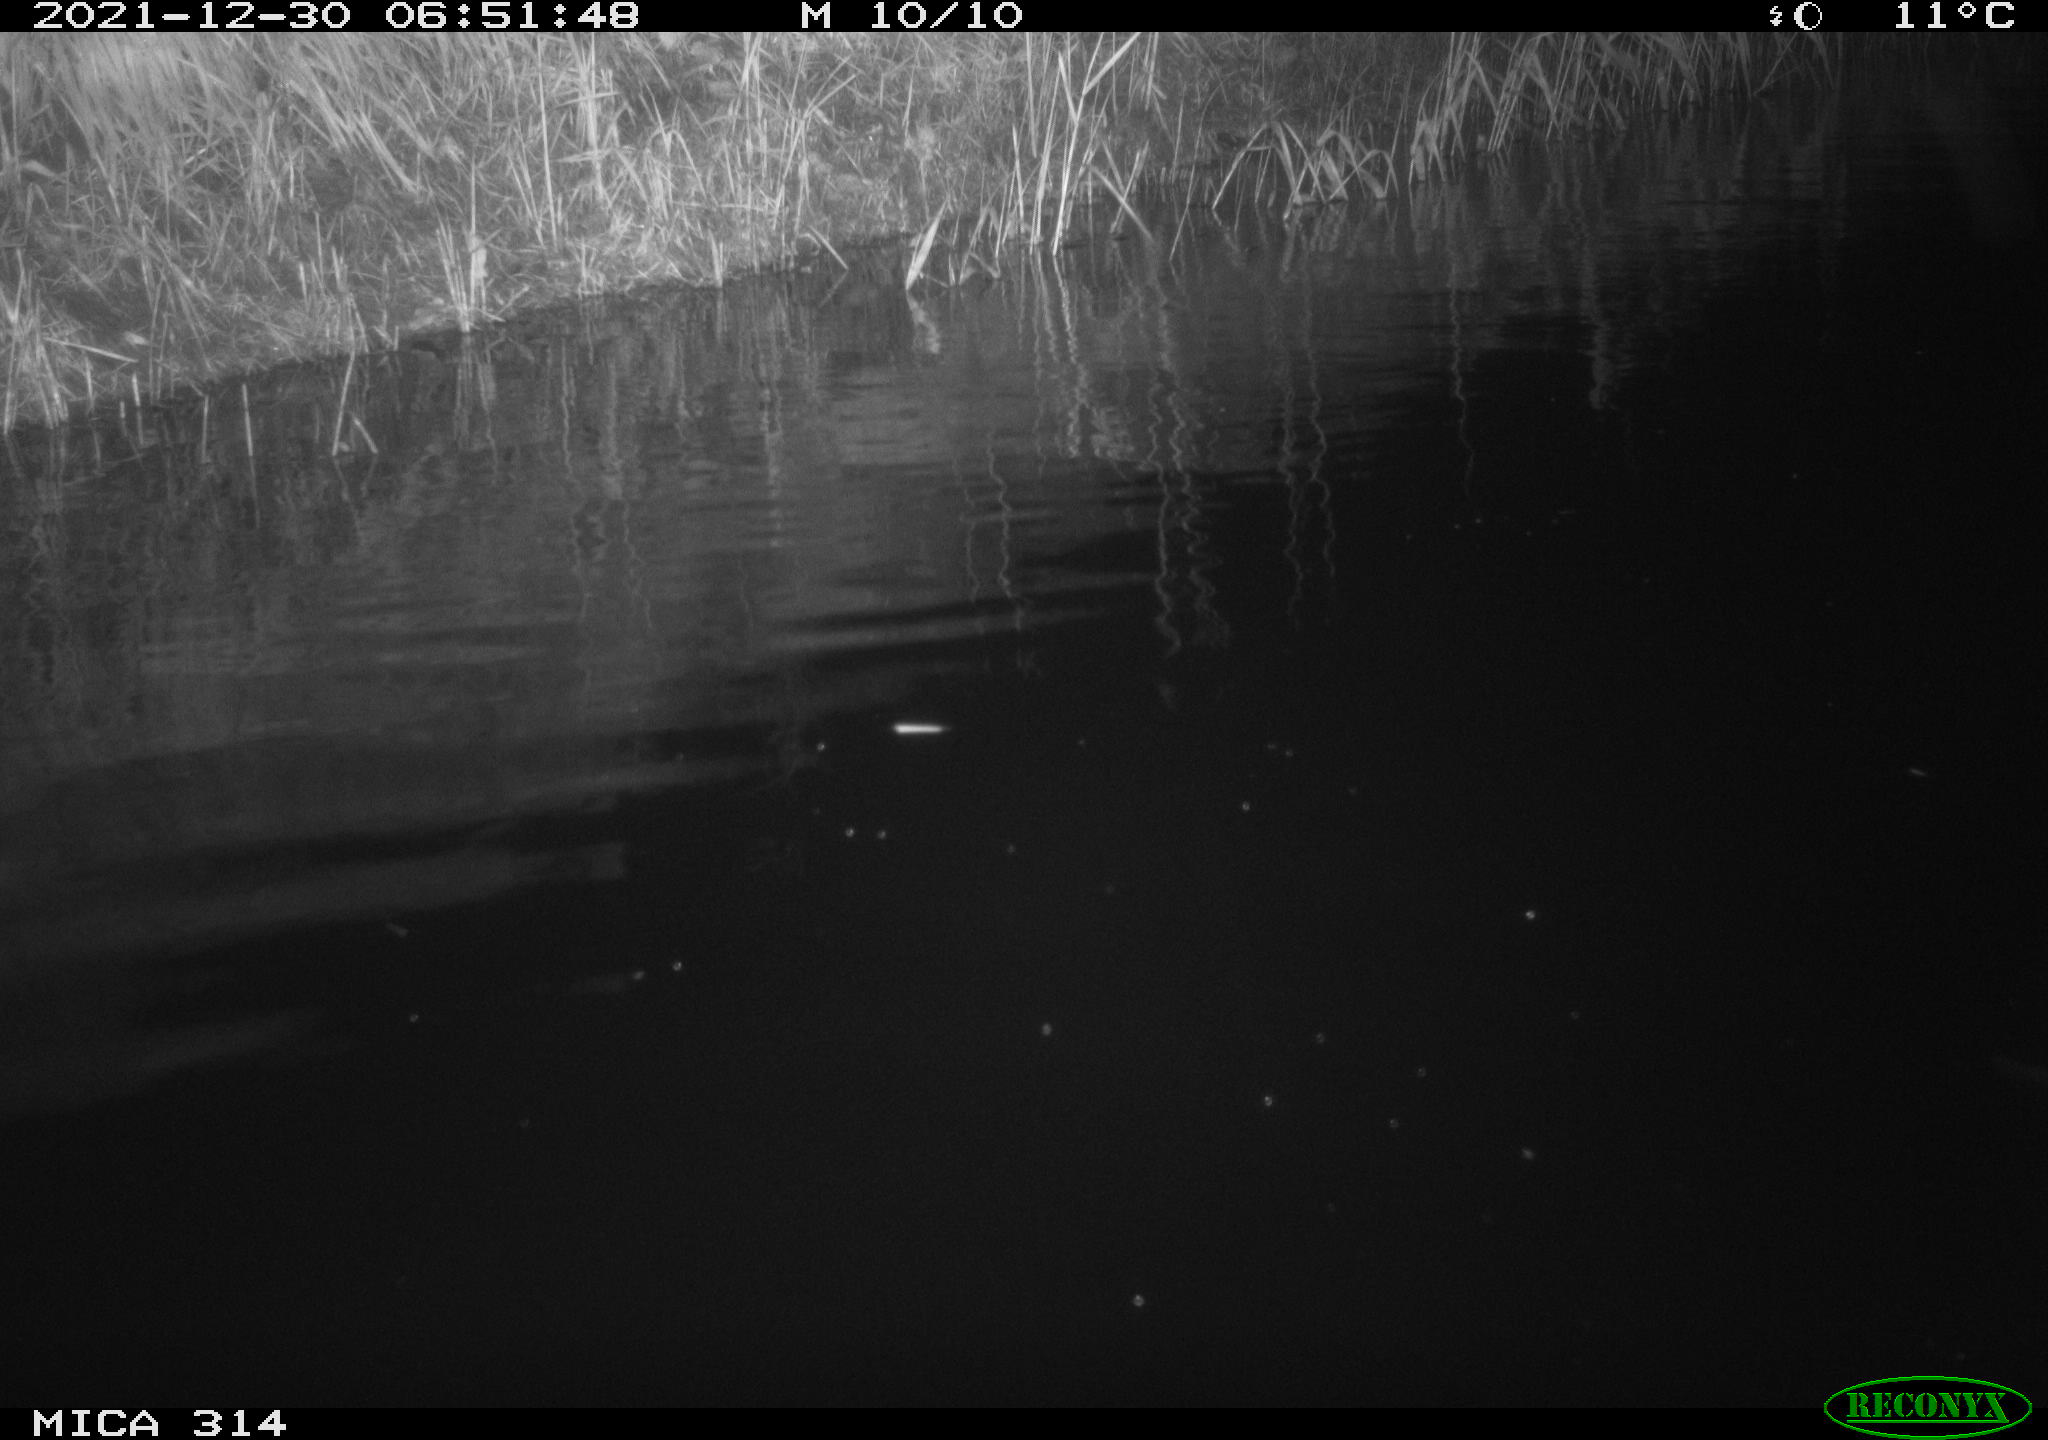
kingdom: Animalia
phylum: Chordata
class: Mammalia
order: Rodentia
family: Cricetidae
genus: Ondatra
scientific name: Ondatra zibethicus
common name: Muskrat
